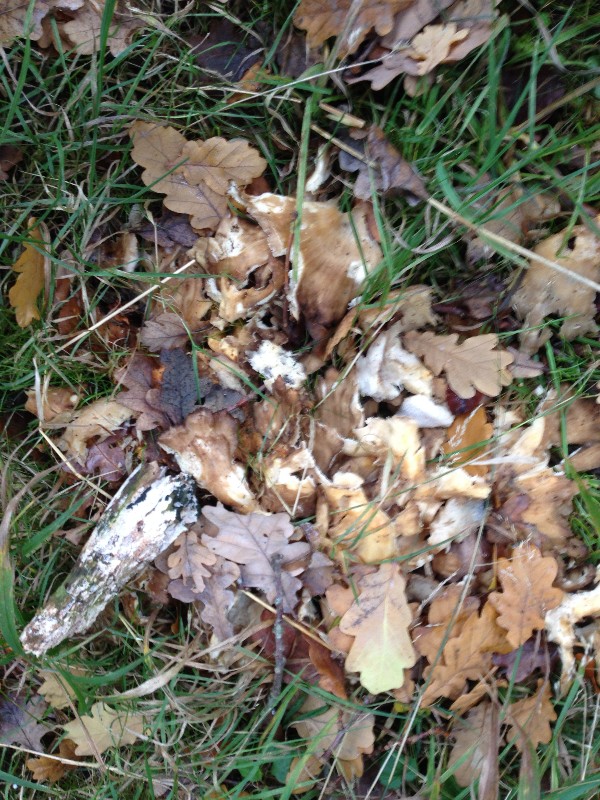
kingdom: Fungi
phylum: Basidiomycota
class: Agaricomycetes
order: Polyporales
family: Meripilaceae
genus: Meripilus
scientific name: Meripilus giganteus
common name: kæmpeporesvamp
